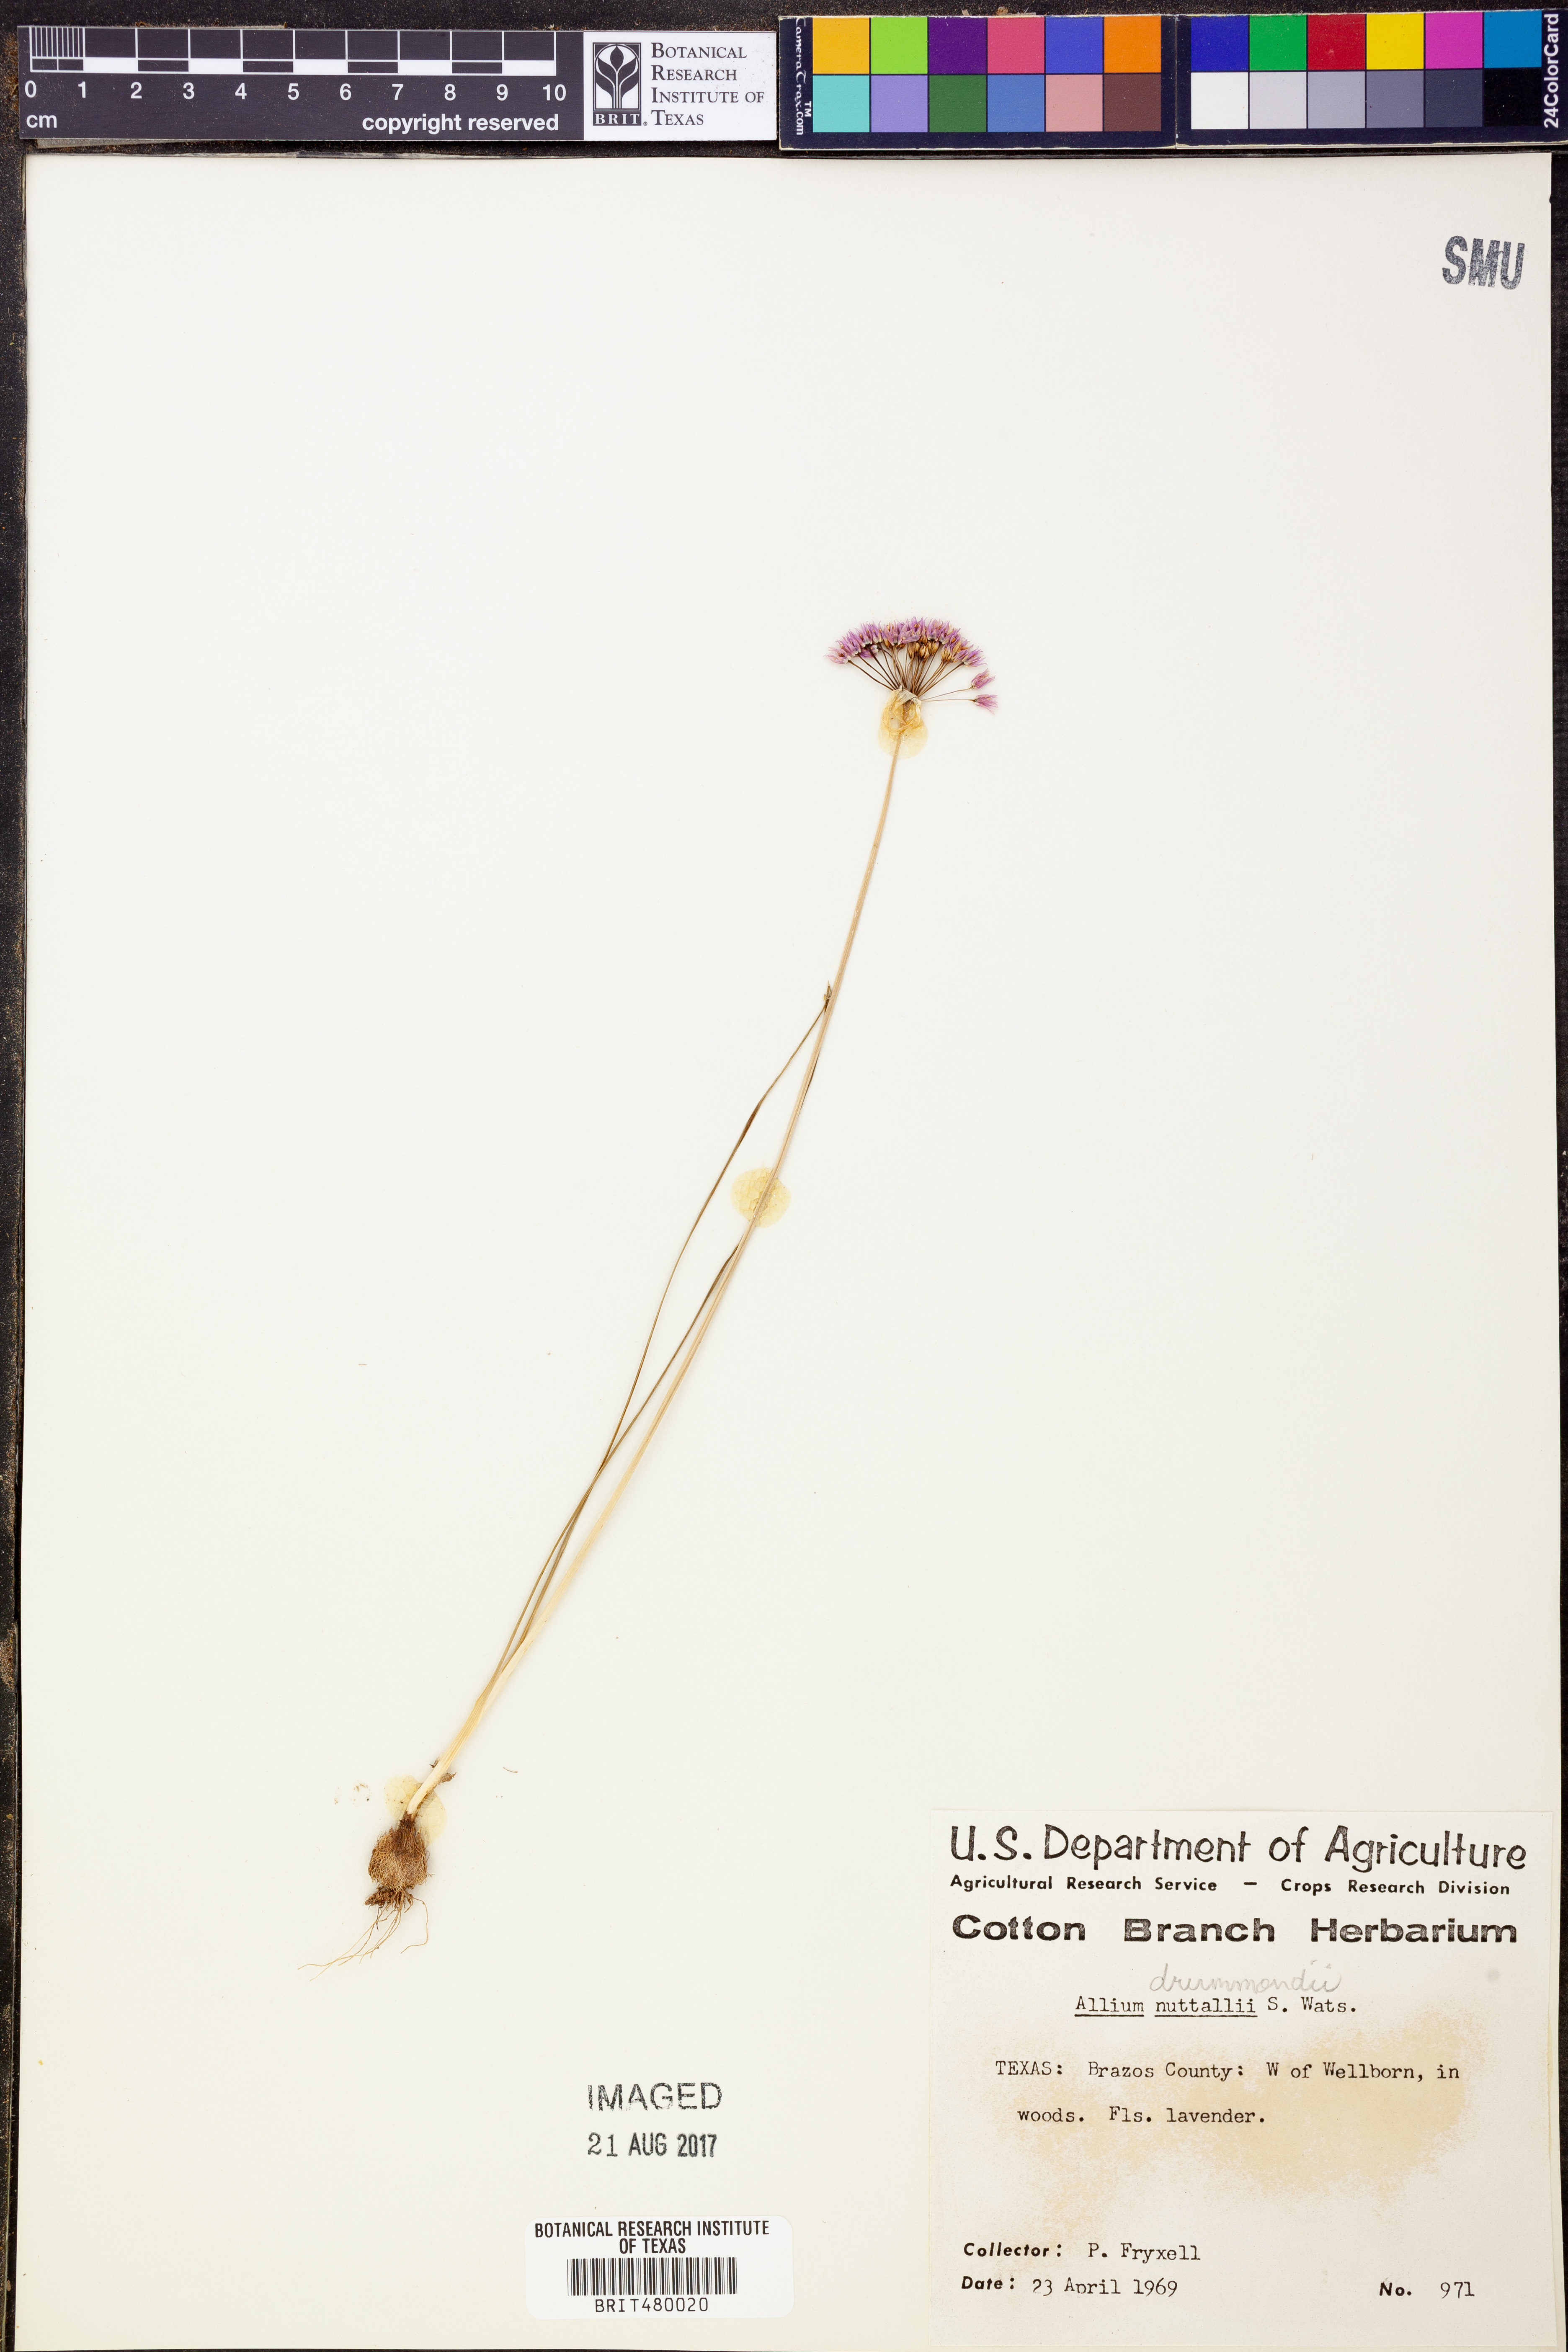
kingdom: Plantae
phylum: Tracheophyta
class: Liliopsida
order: Asparagales
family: Amaryllidaceae
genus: Allium
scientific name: Allium drummondii
